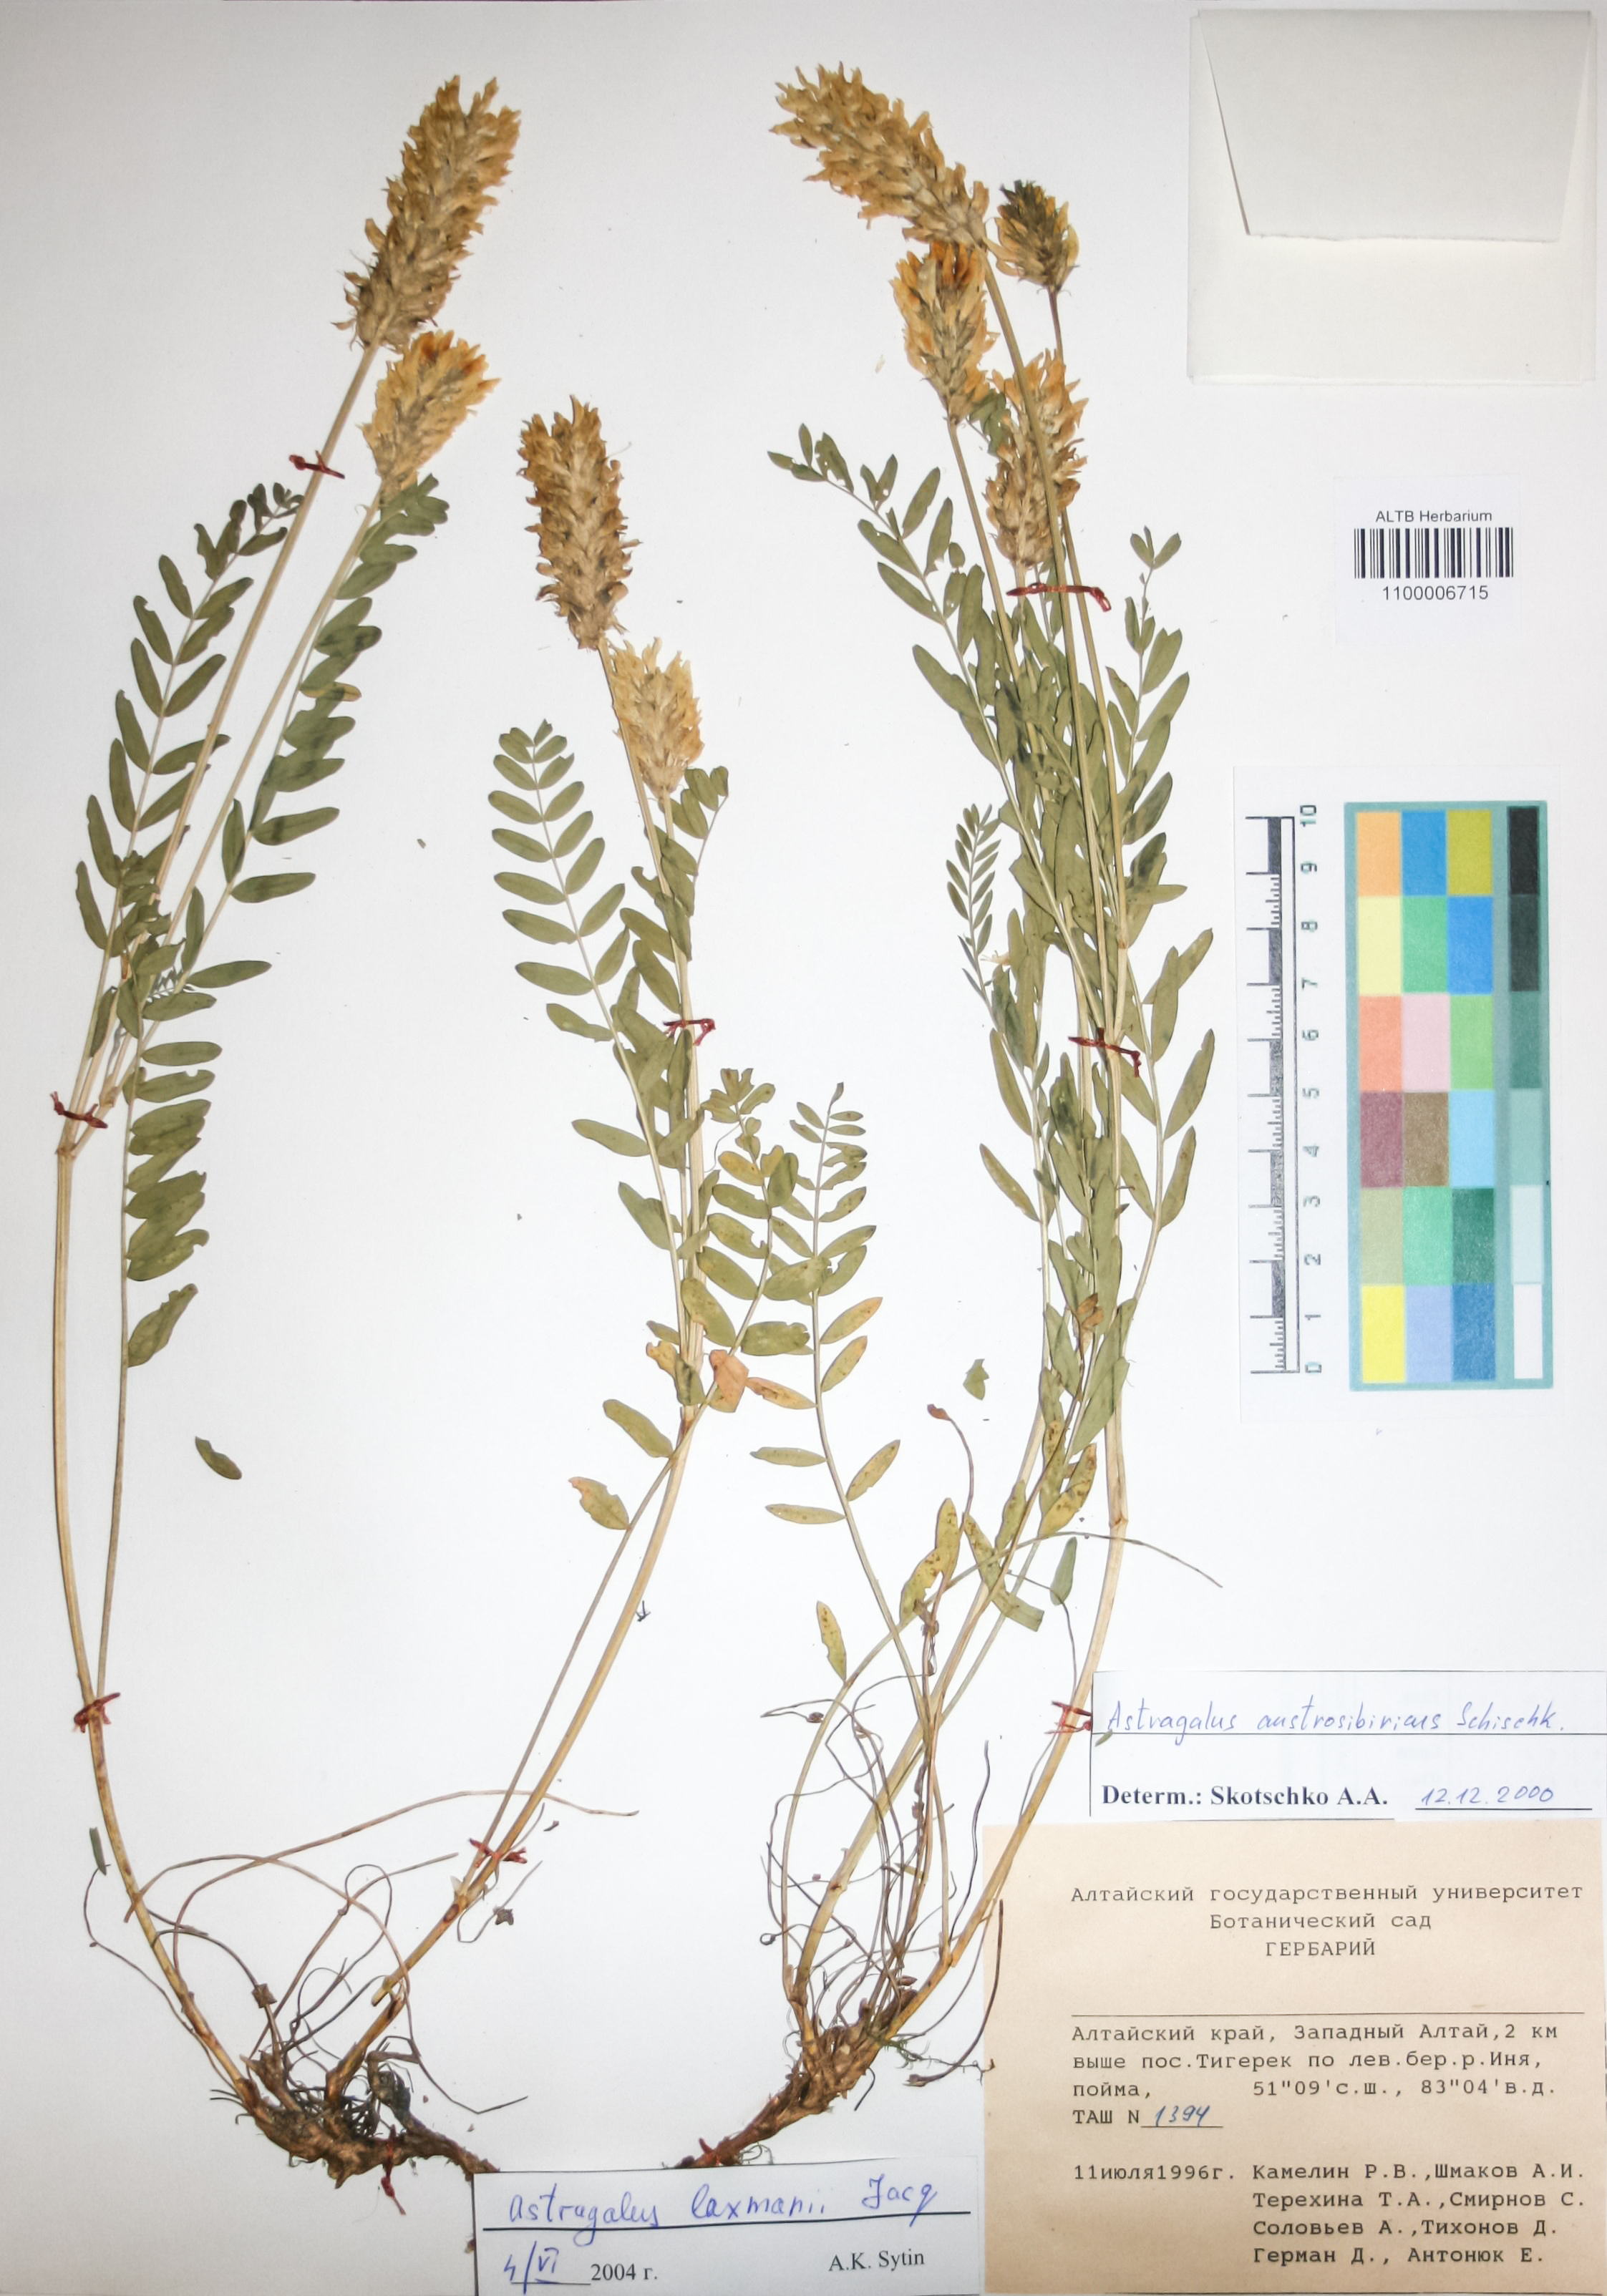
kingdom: Plantae
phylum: Tracheophyta
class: Magnoliopsida
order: Fabales
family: Fabaceae
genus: Astragalus
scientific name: Astragalus laxmannii
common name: Laxmann's milk-vetch
